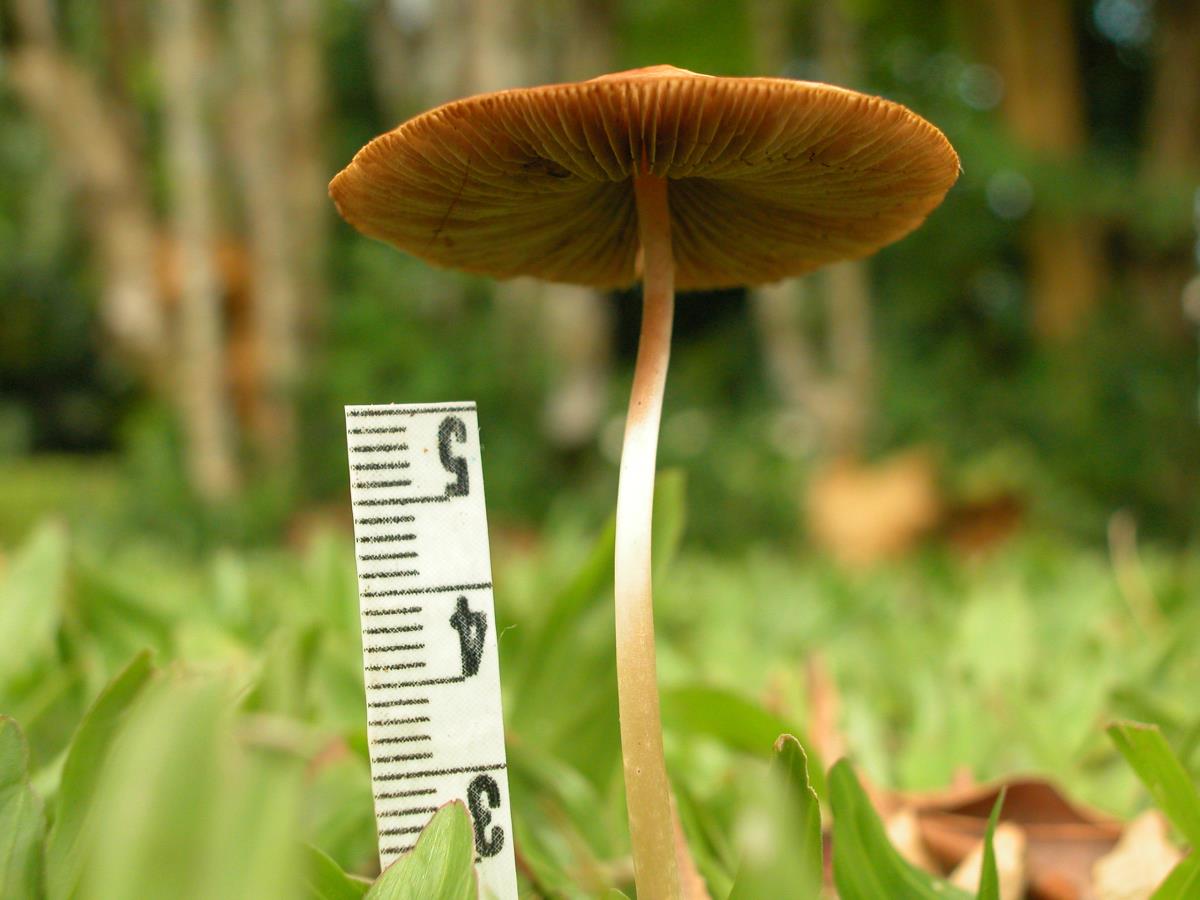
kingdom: Fungi
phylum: Basidiomycota
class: Agaricomycetes
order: Agaricales
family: Bolbitiaceae
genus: Conocybe
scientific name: Conocybe
